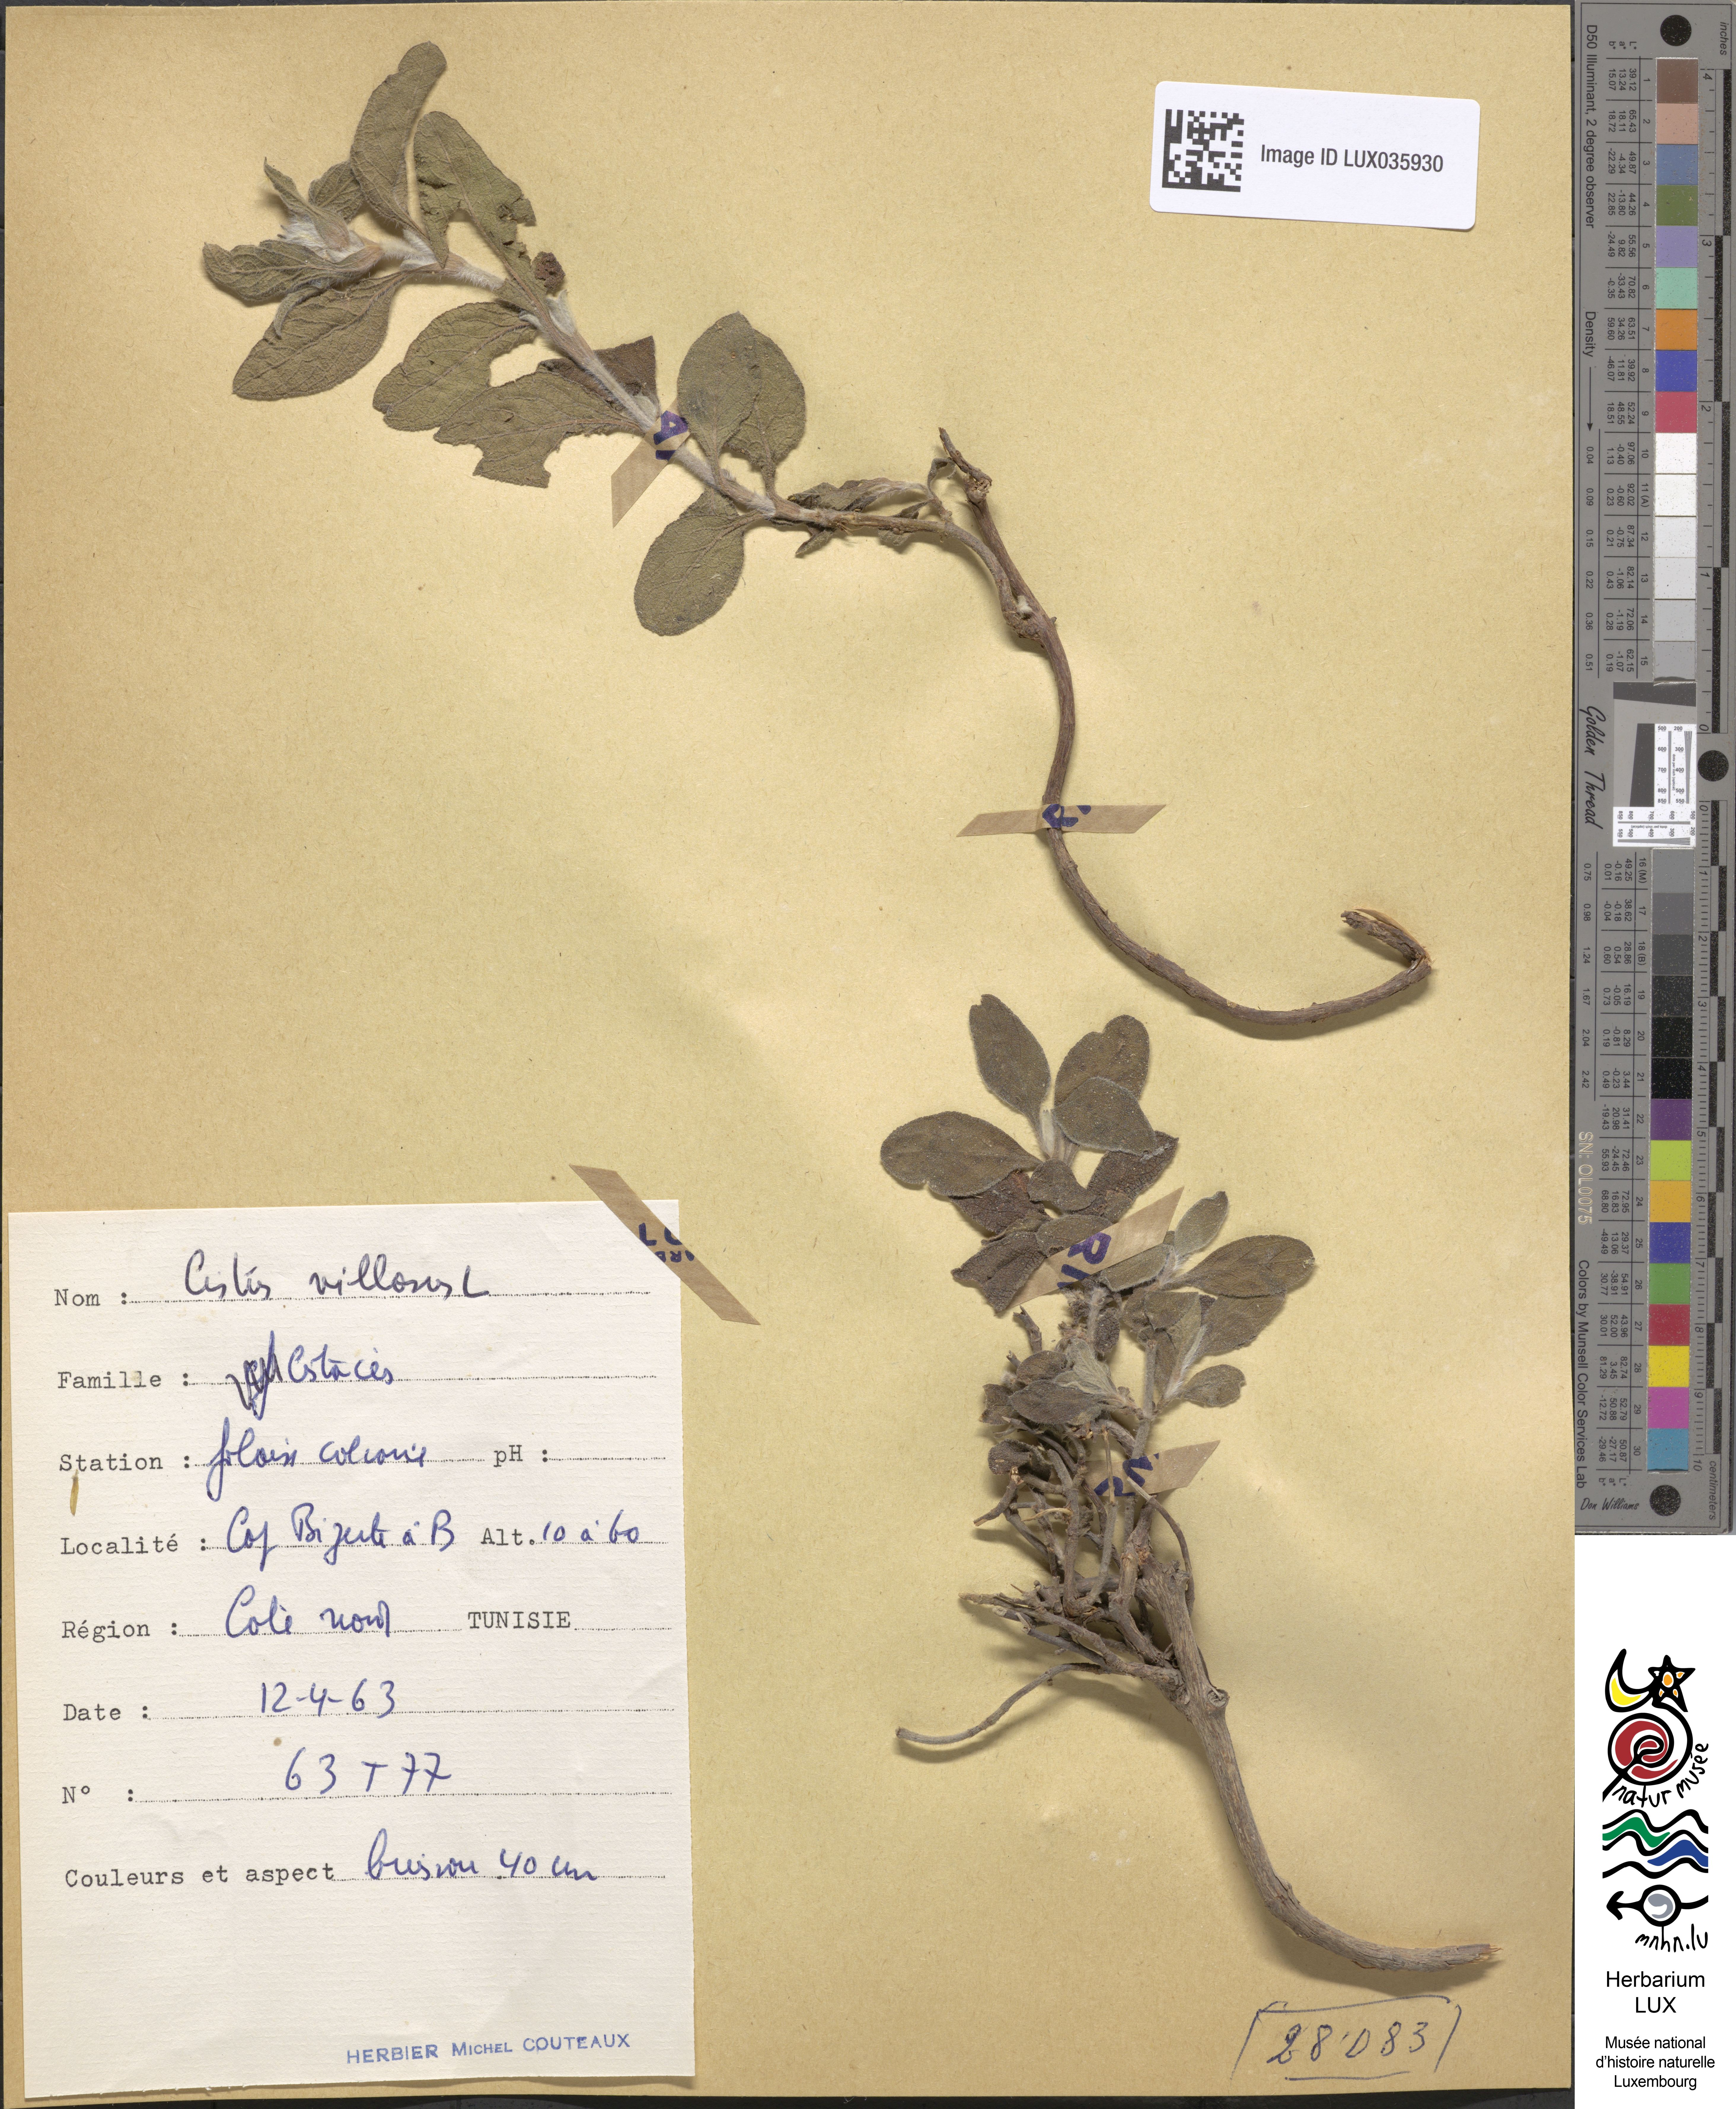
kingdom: Plantae
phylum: Tracheophyta
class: Magnoliopsida
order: Malvales
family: Cistaceae
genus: Cistus
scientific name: Cistus incanus
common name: Hairy rockrose
